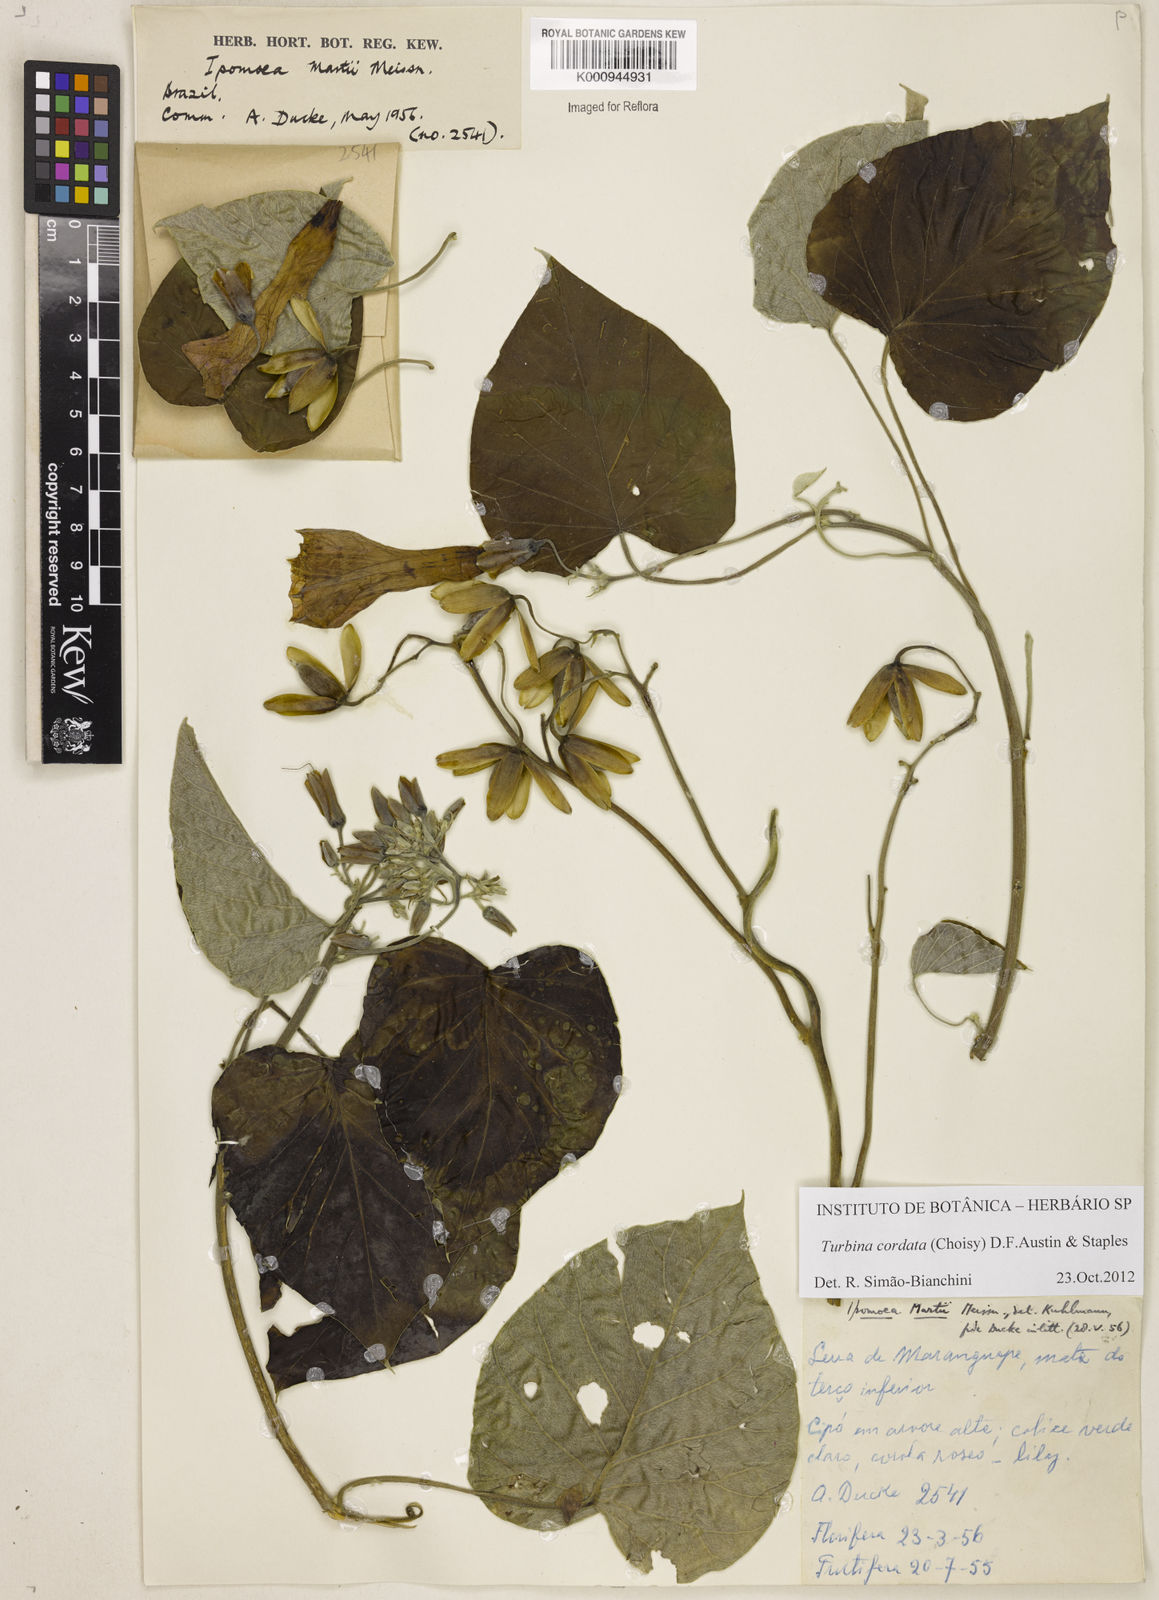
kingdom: Animalia
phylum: Mollusca
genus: Turbina
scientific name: Turbina
